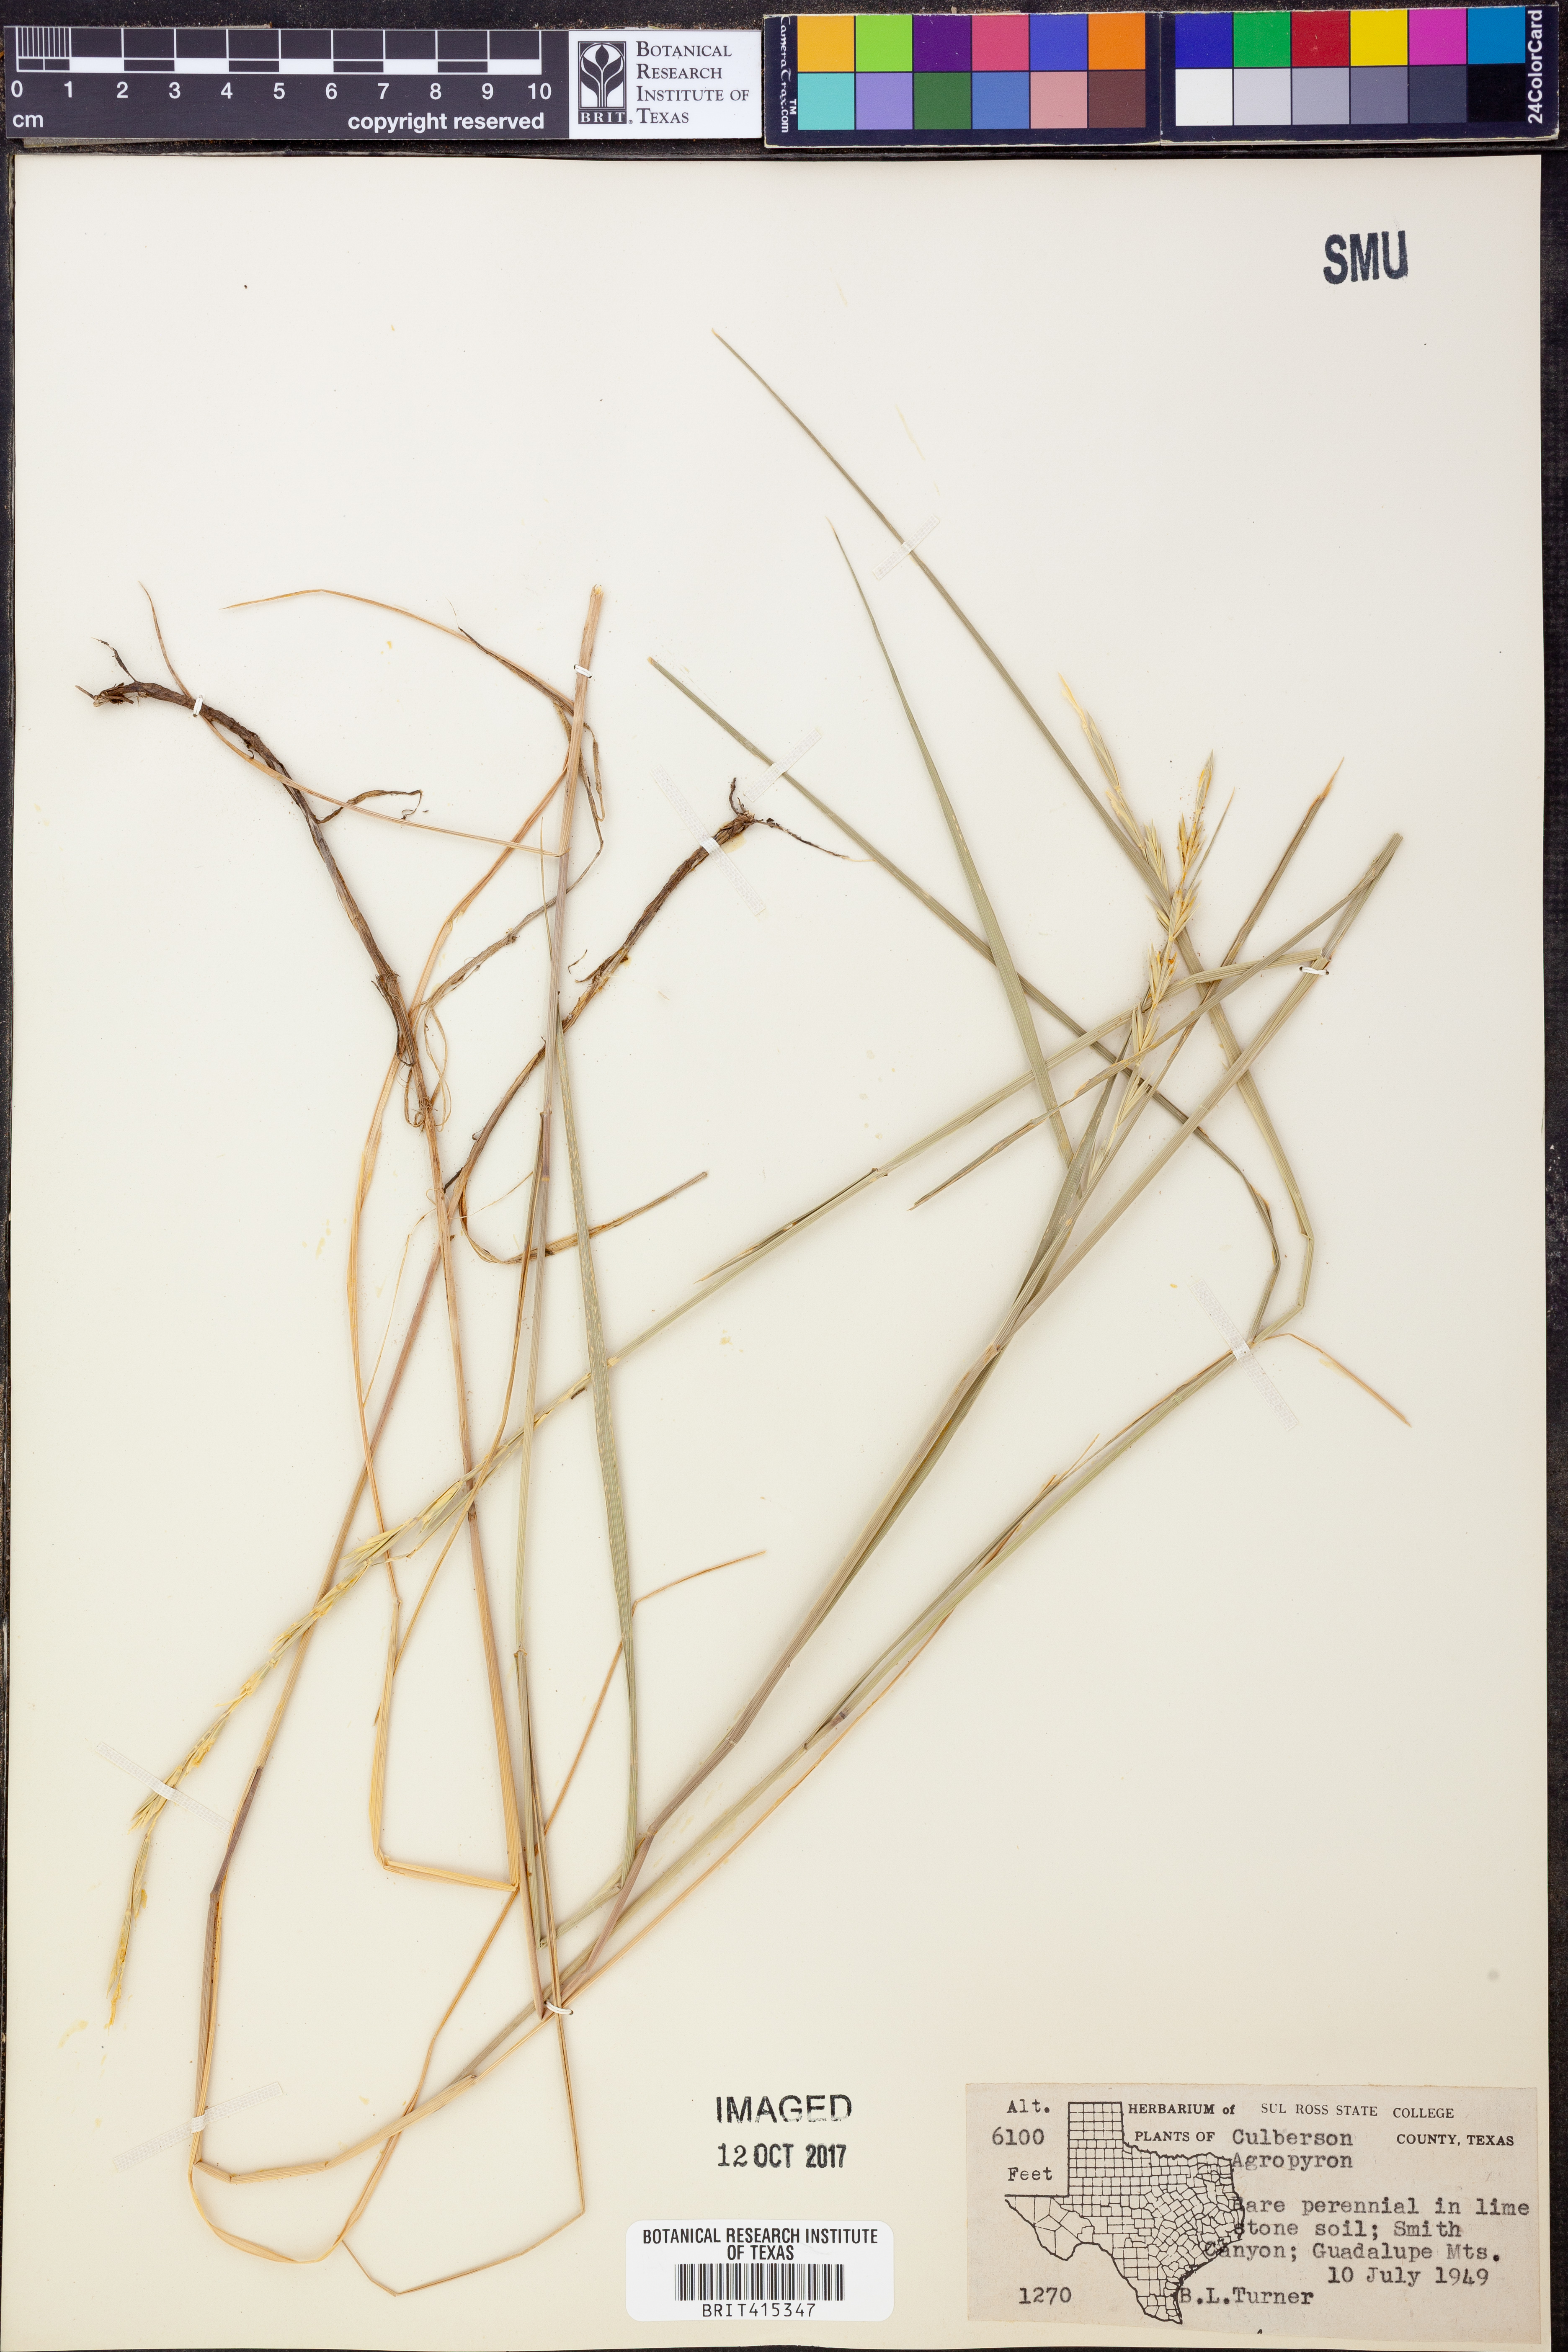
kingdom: Plantae
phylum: Tracheophyta
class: Liliopsida
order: Poales
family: Poaceae
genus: Agropyron
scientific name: Agropyron
